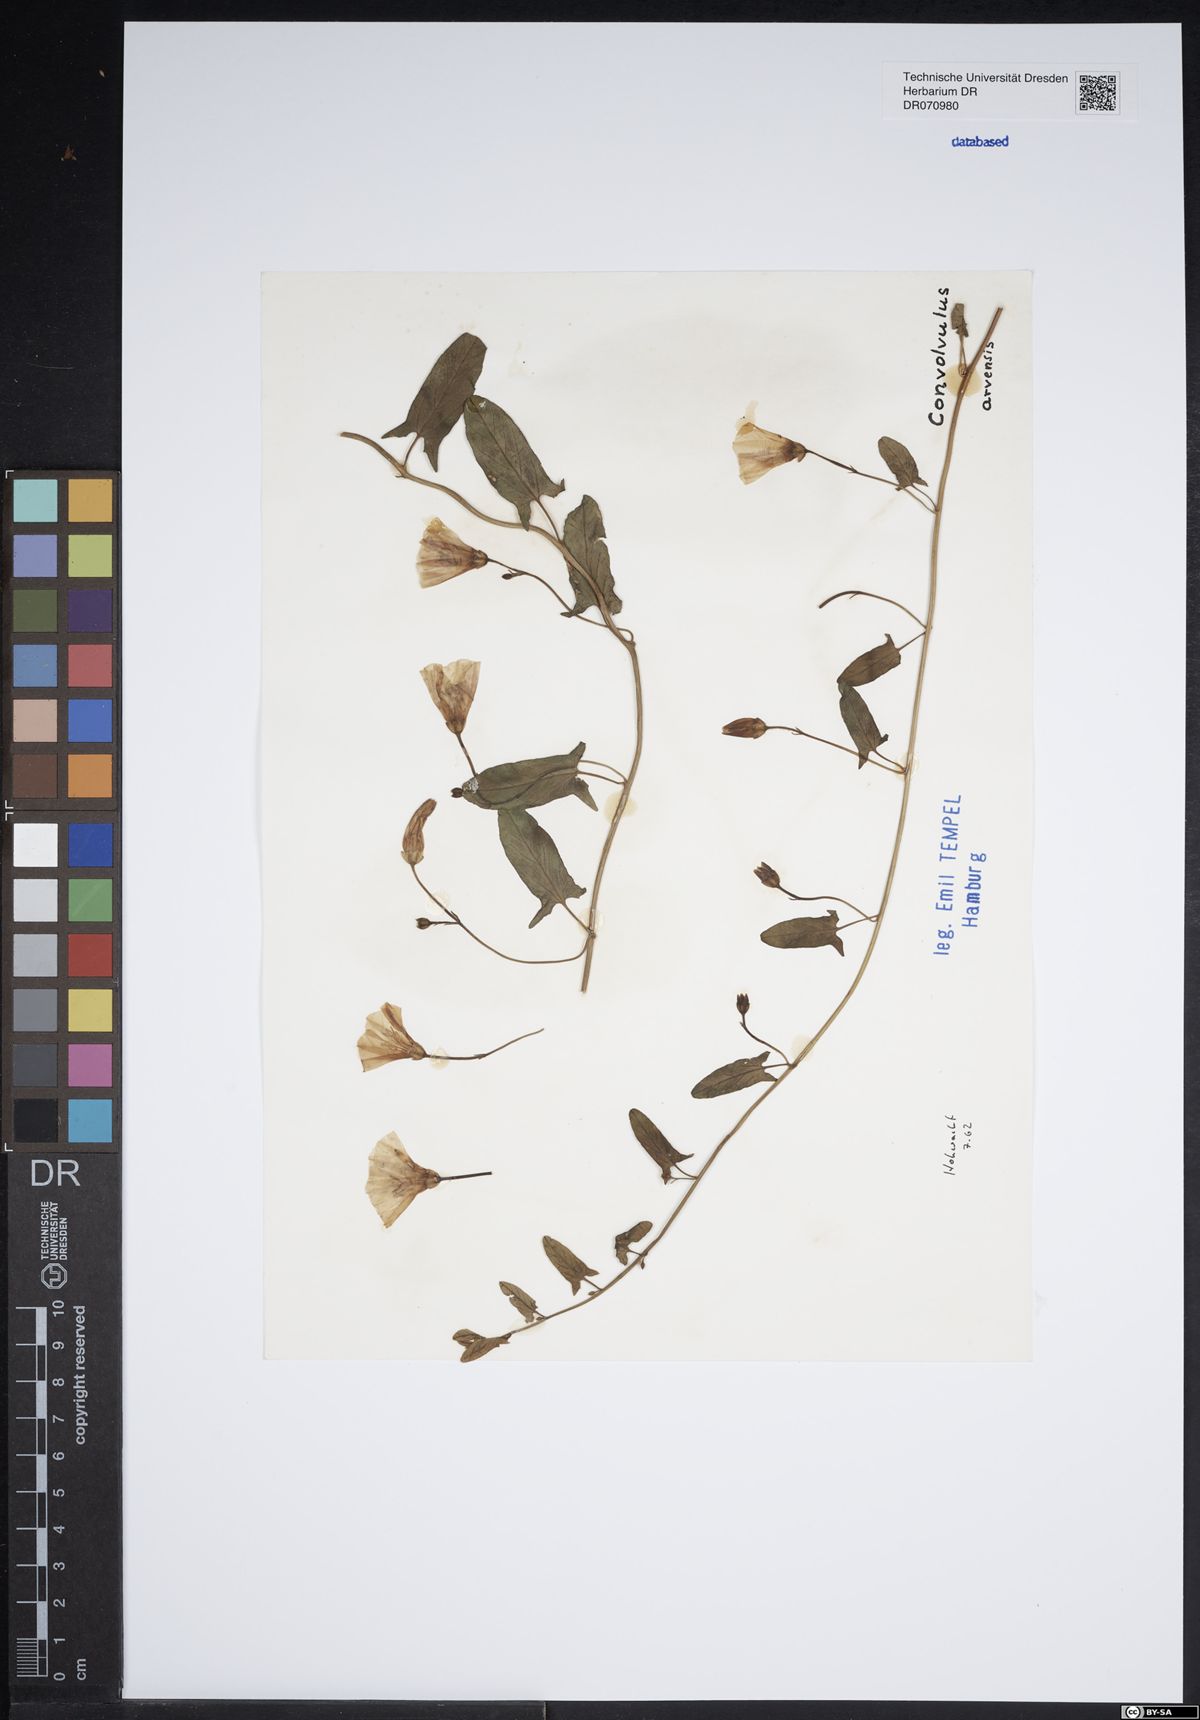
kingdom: Plantae
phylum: Tracheophyta
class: Magnoliopsida
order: Solanales
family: Convolvulaceae
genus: Convolvulus
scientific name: Convolvulus arvensis
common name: Field bindweed
